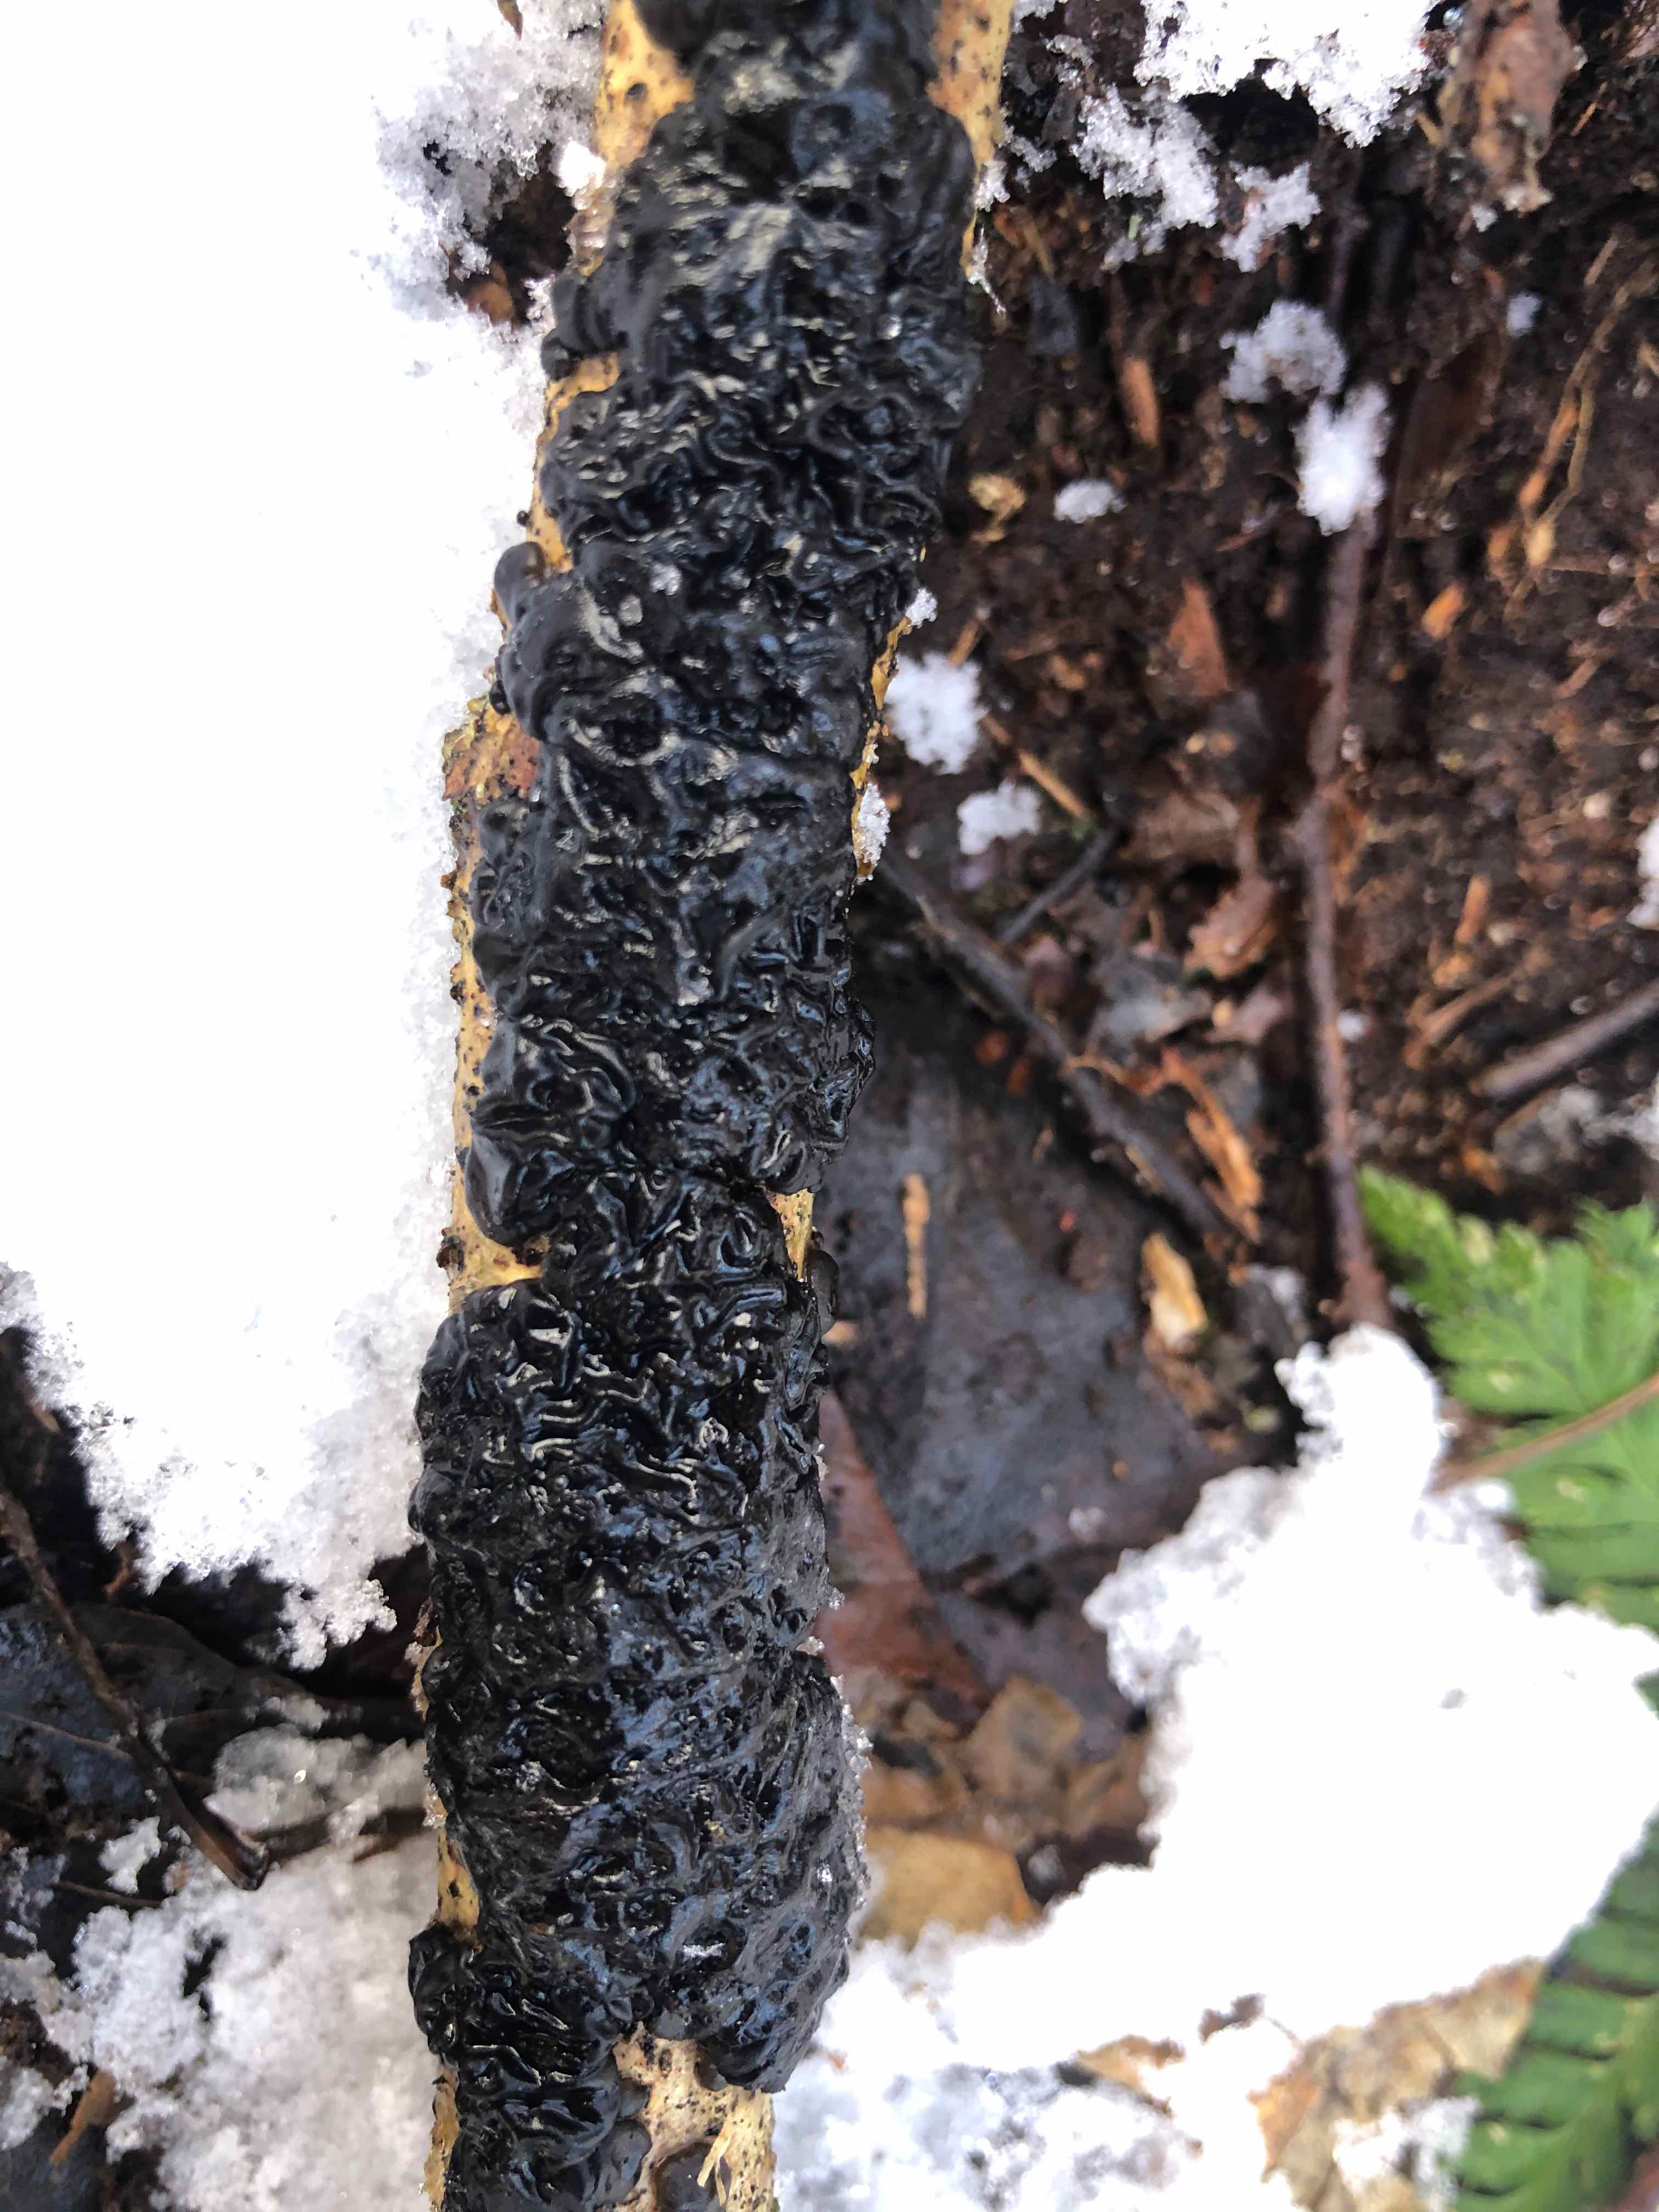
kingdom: Fungi
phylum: Basidiomycota
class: Agaricomycetes
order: Auriculariales
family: Auriculariaceae
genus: Exidia
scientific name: Exidia nigricans
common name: almindelig bævretop
